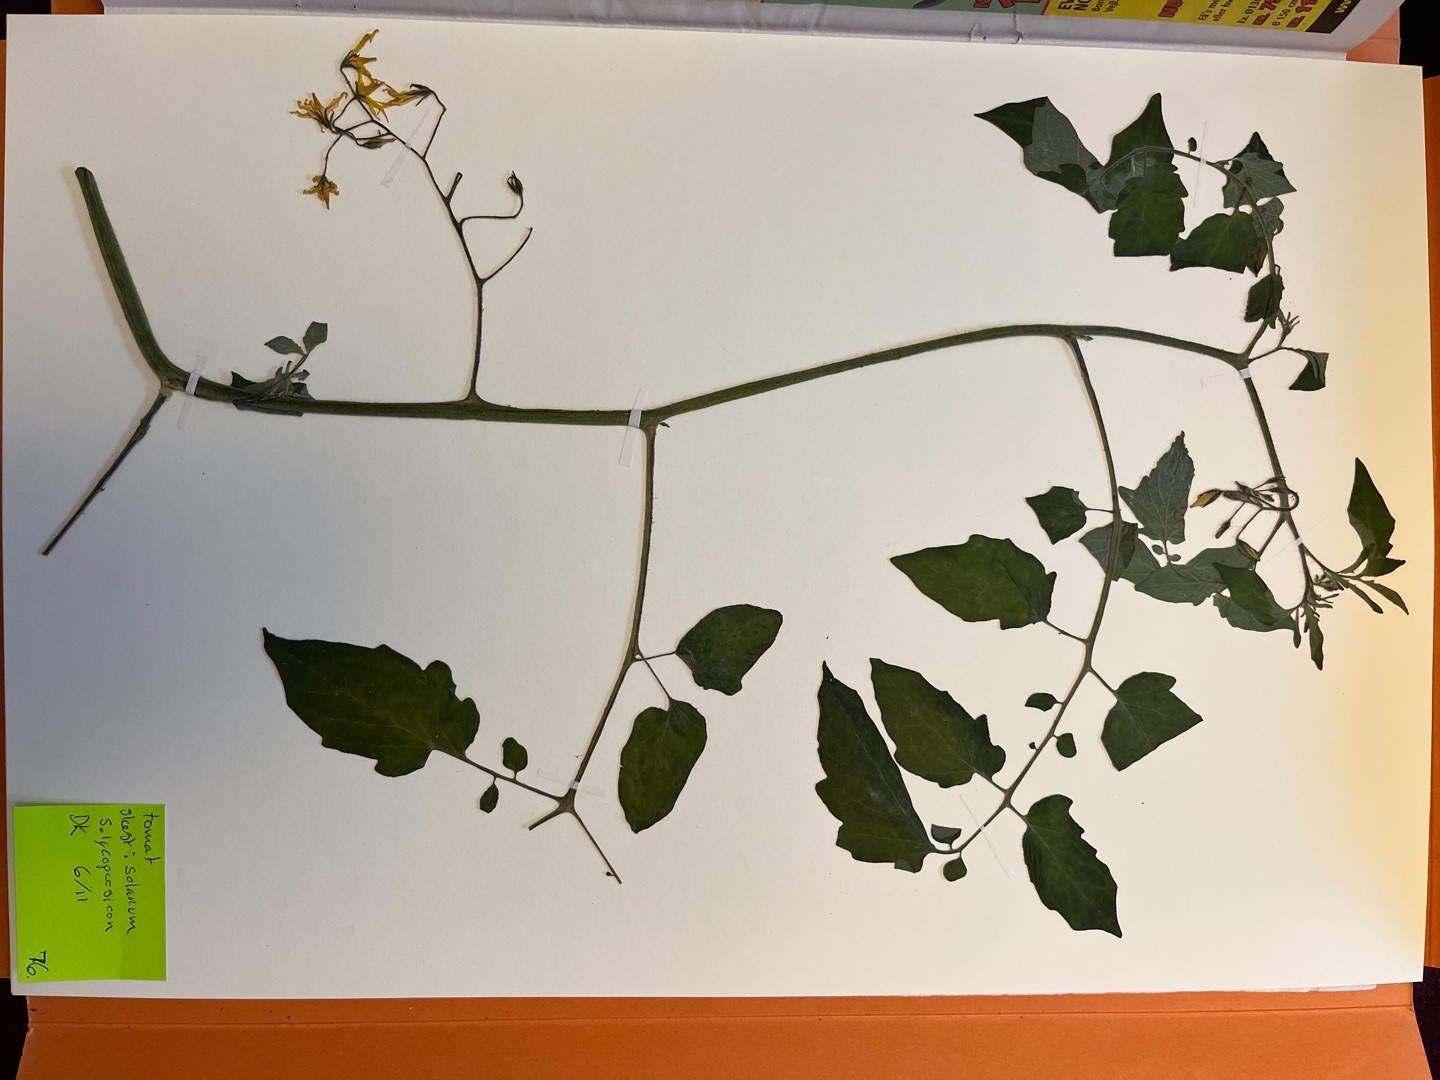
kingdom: Plantae
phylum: Tracheophyta
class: Magnoliopsida
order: Solanales
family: Solanaceae
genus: Solanum
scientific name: Solanum lycopersicum
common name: Tomat
